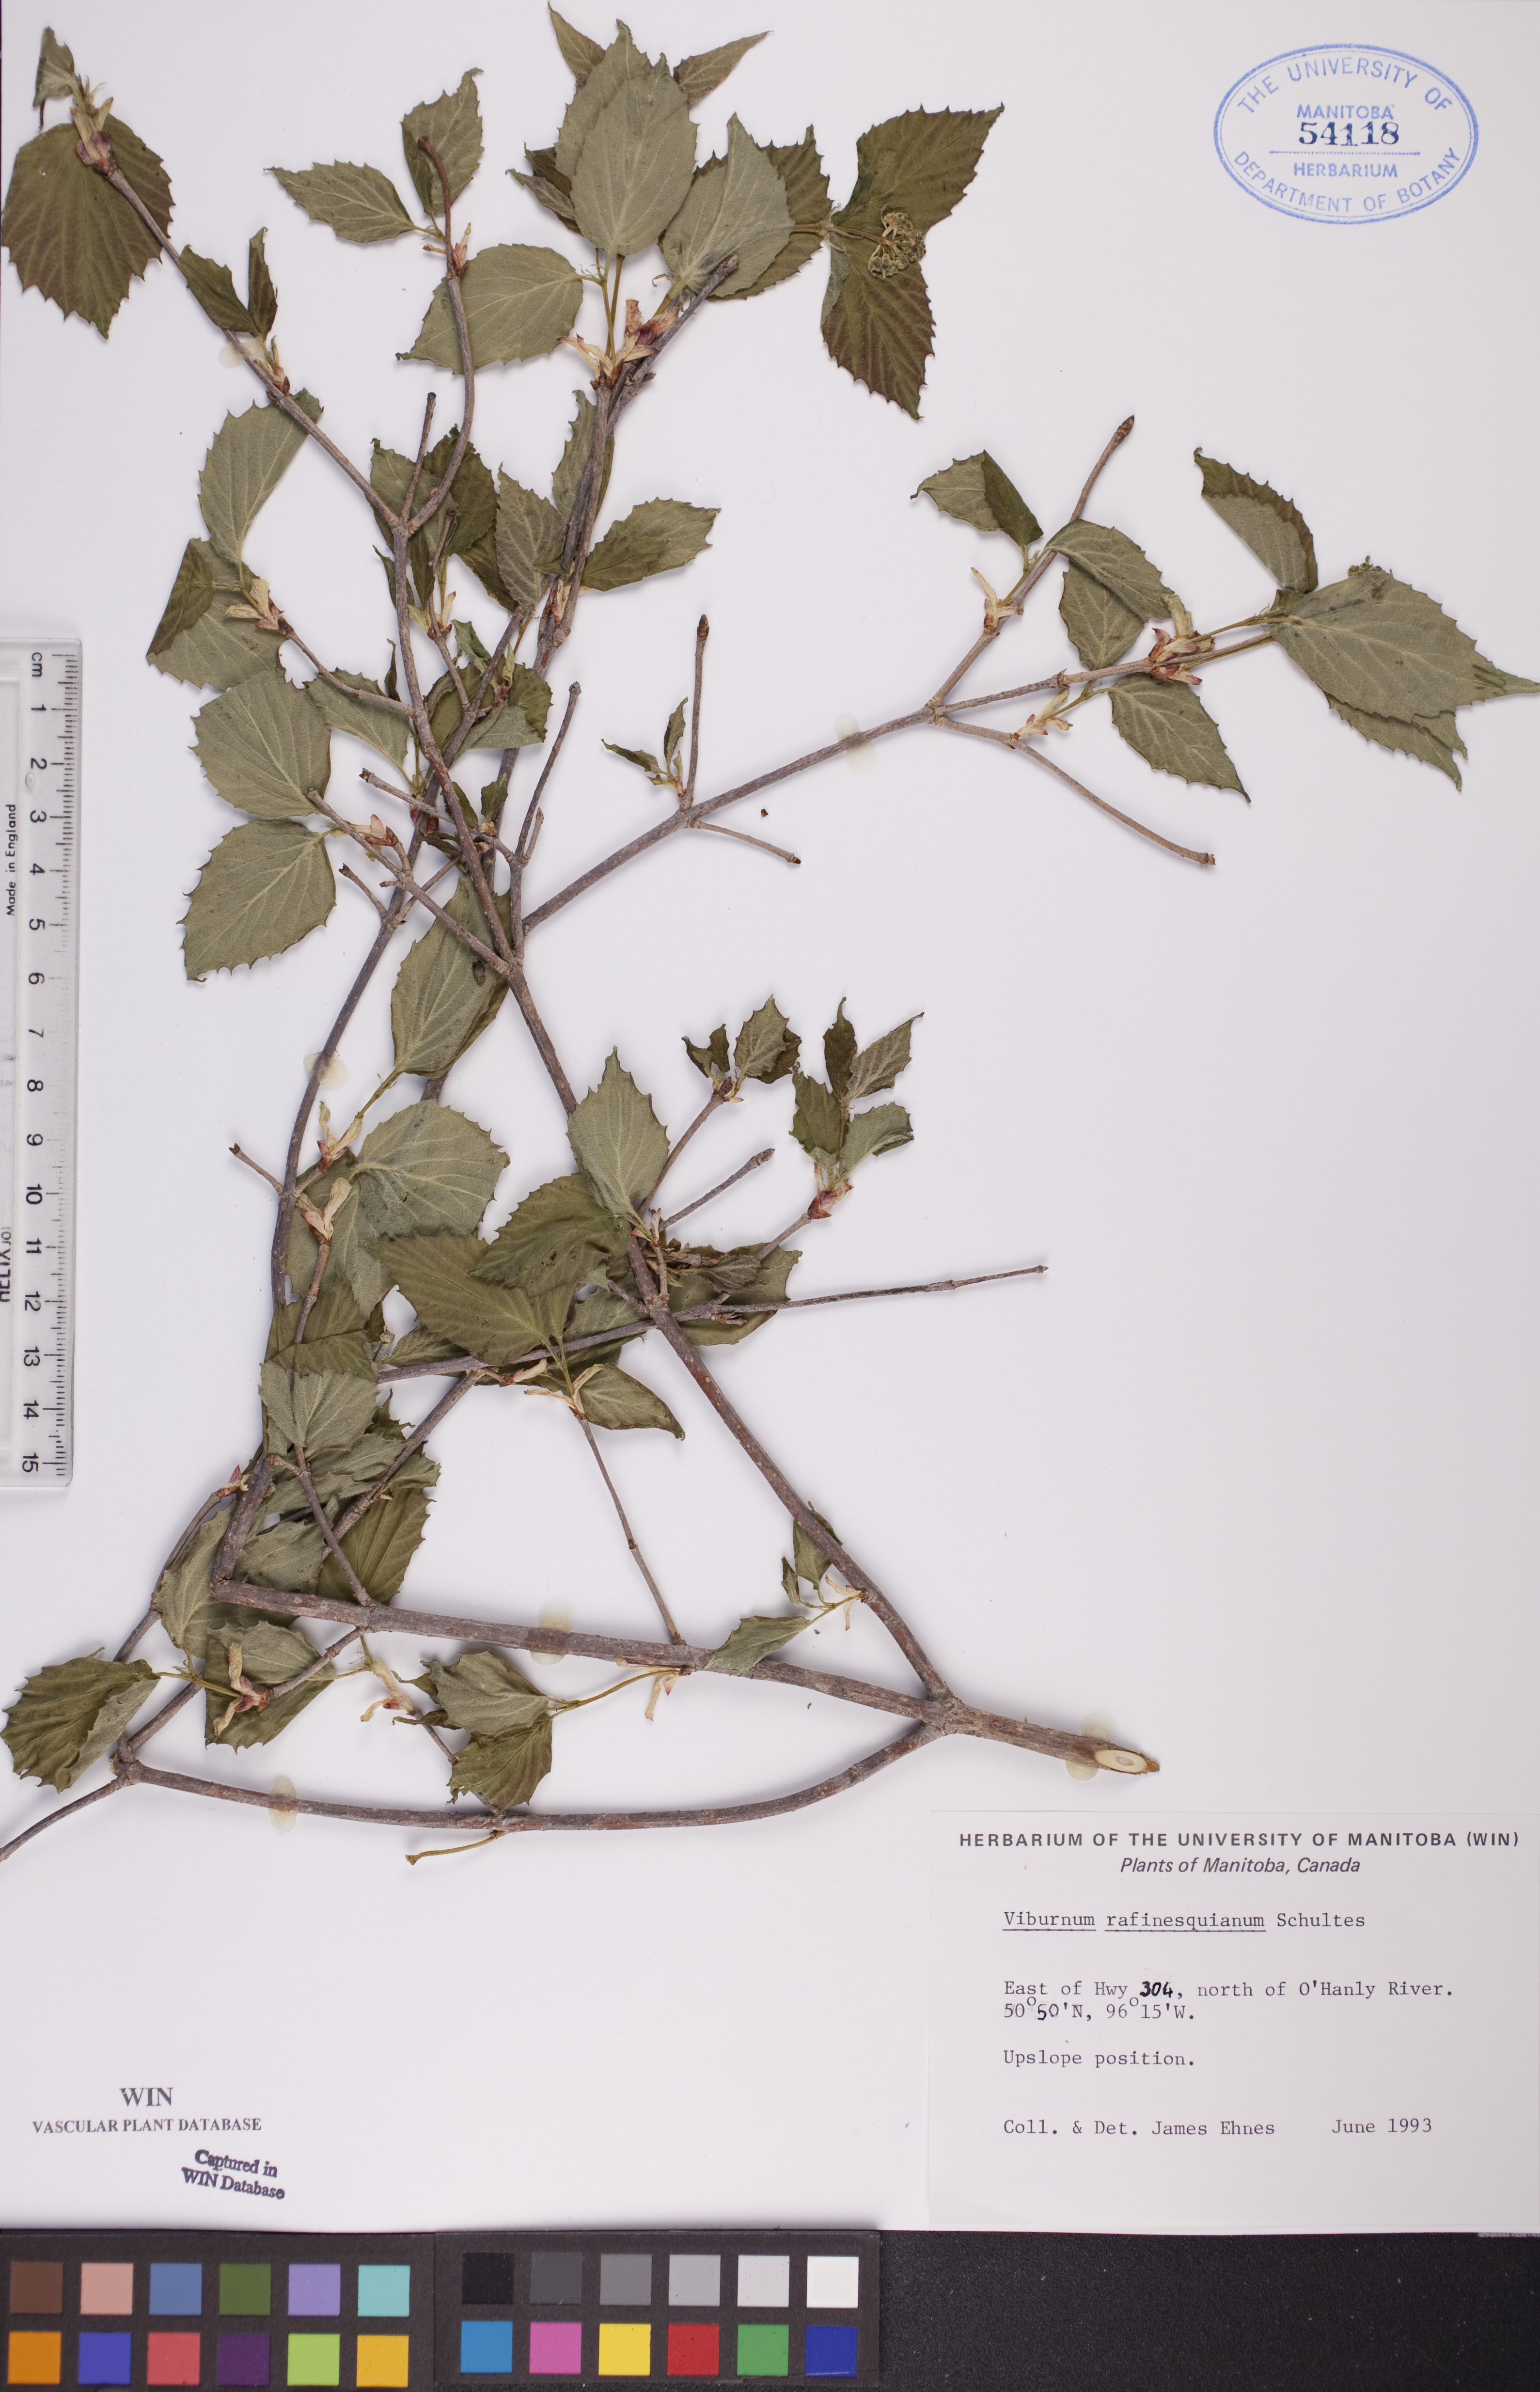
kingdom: Plantae
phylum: Tracheophyta
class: Magnoliopsida
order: Dipsacales
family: Viburnaceae
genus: Viburnum
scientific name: Viburnum rafinesquianum
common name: Downy arrow-wood
